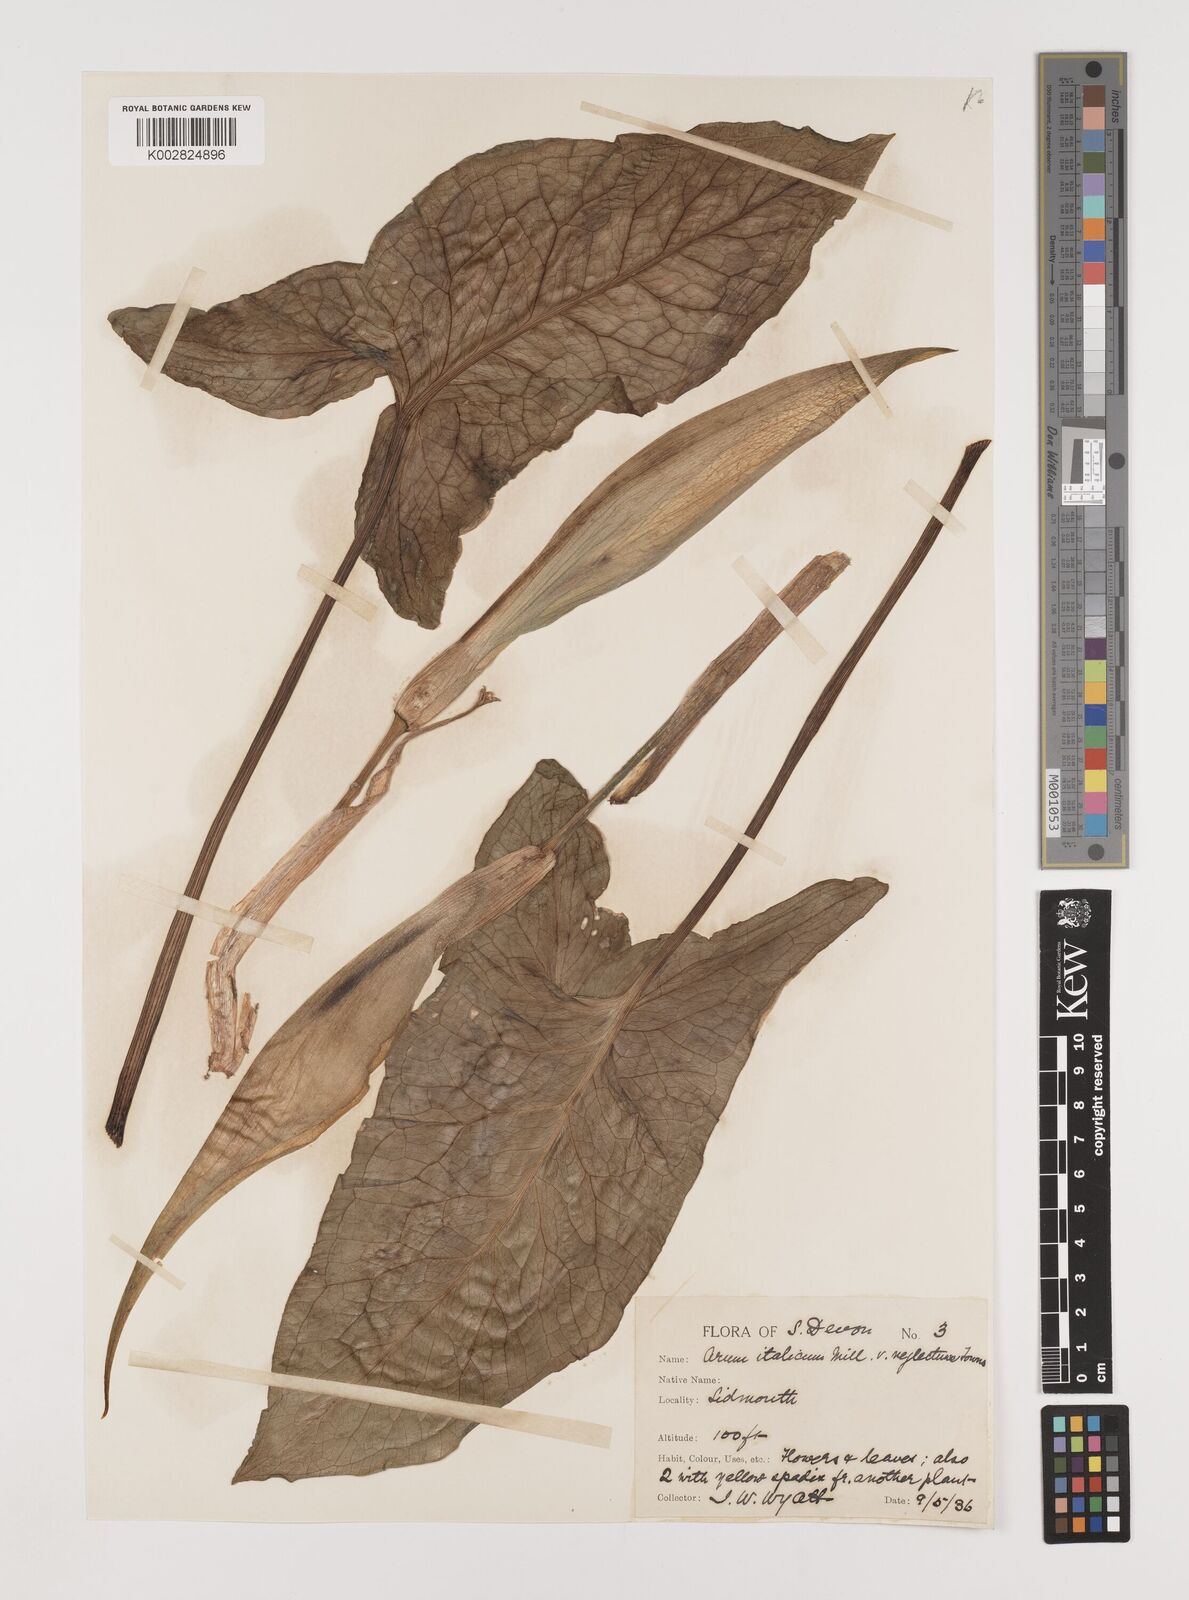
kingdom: Plantae
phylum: Tracheophyta
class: Liliopsida
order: Alismatales
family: Araceae
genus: Arum
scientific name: Arum italicum
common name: Italian lords-and-ladies
